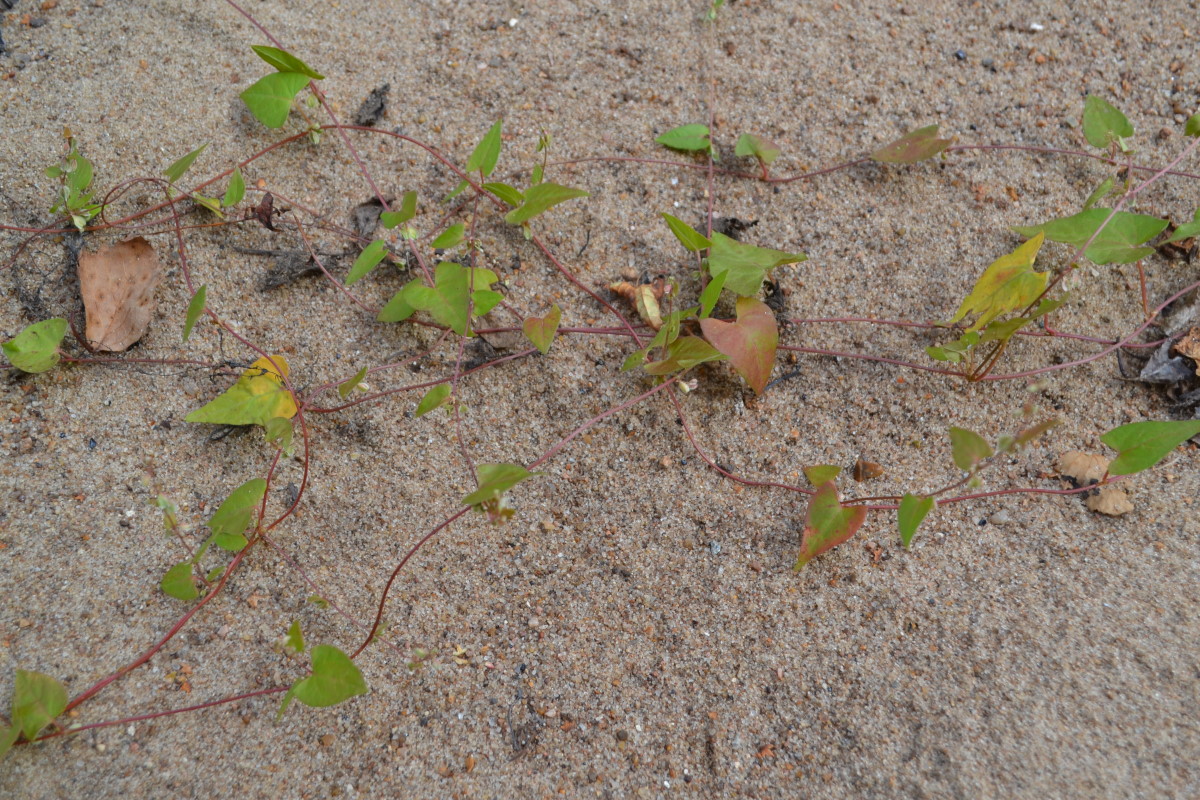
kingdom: Plantae
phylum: Tracheophyta
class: Magnoliopsida
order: Caryophyllales
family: Polygonaceae
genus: Fallopia
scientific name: Fallopia dumetorum
